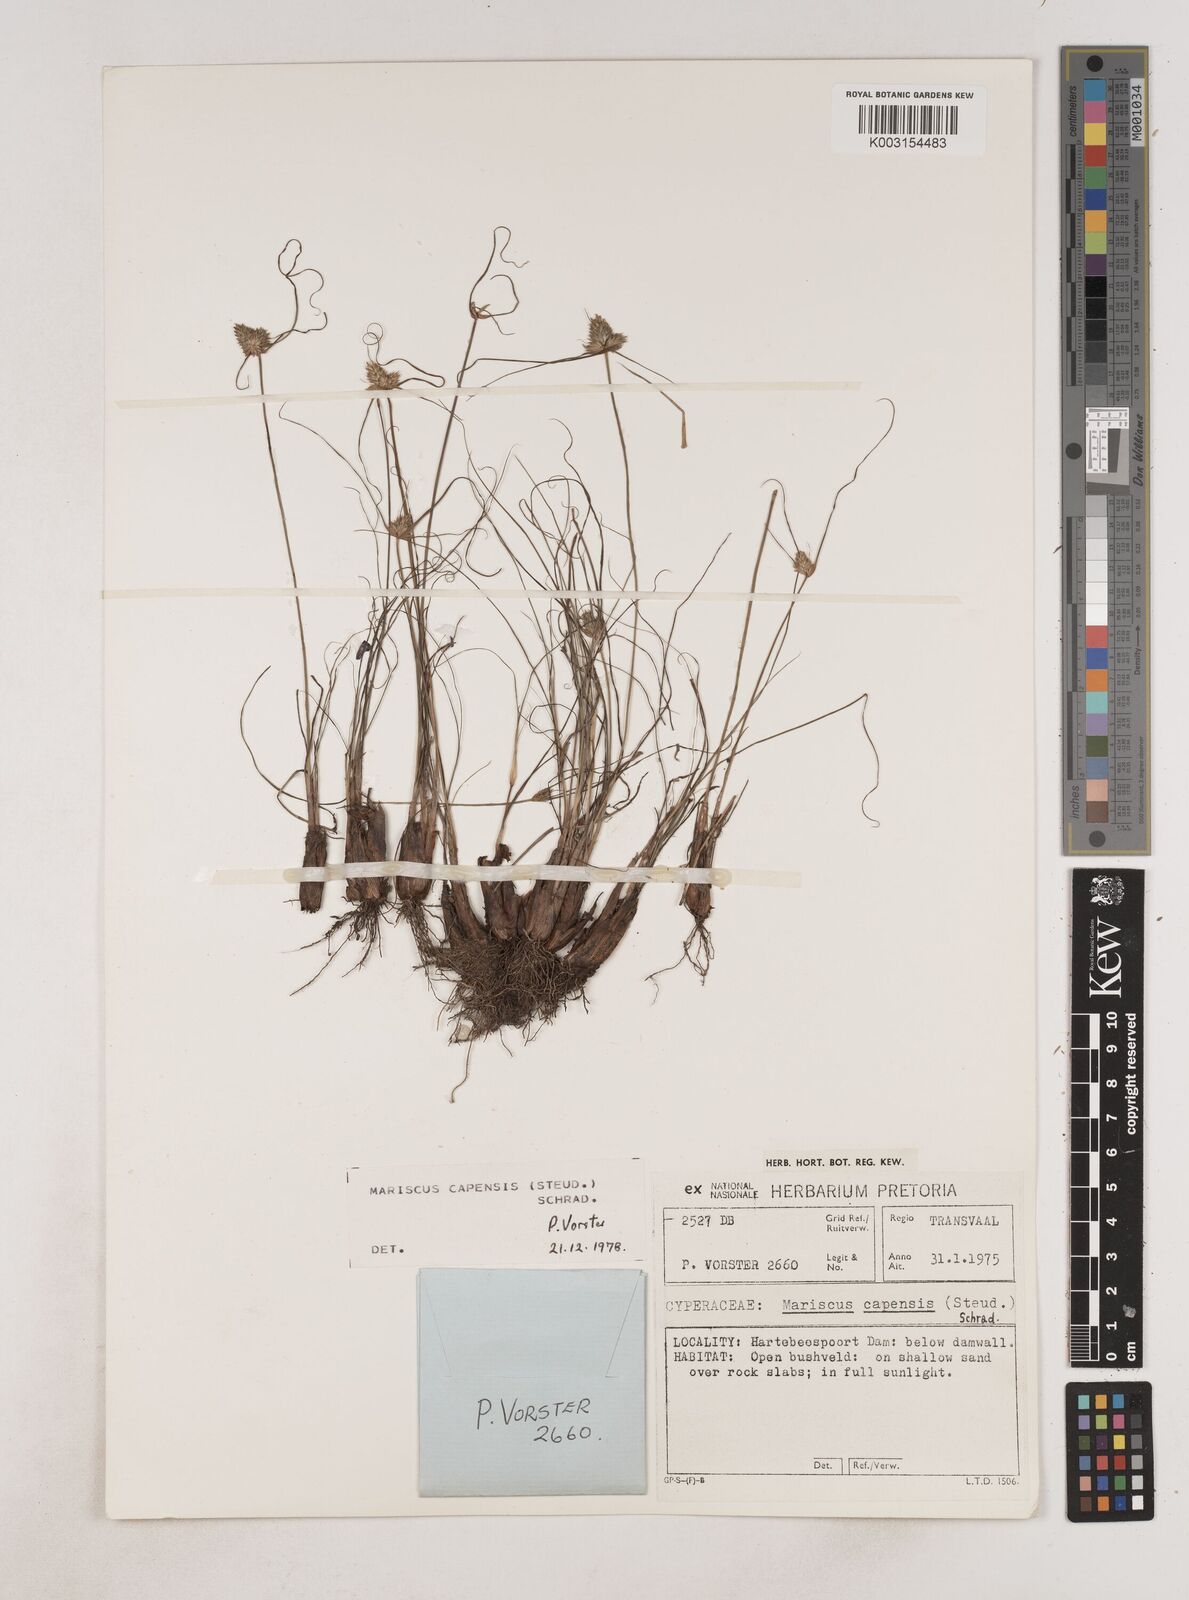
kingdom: Plantae
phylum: Tracheophyta
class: Liliopsida
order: Poales
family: Cyperaceae
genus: Cyperus
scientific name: Cyperus capensis
